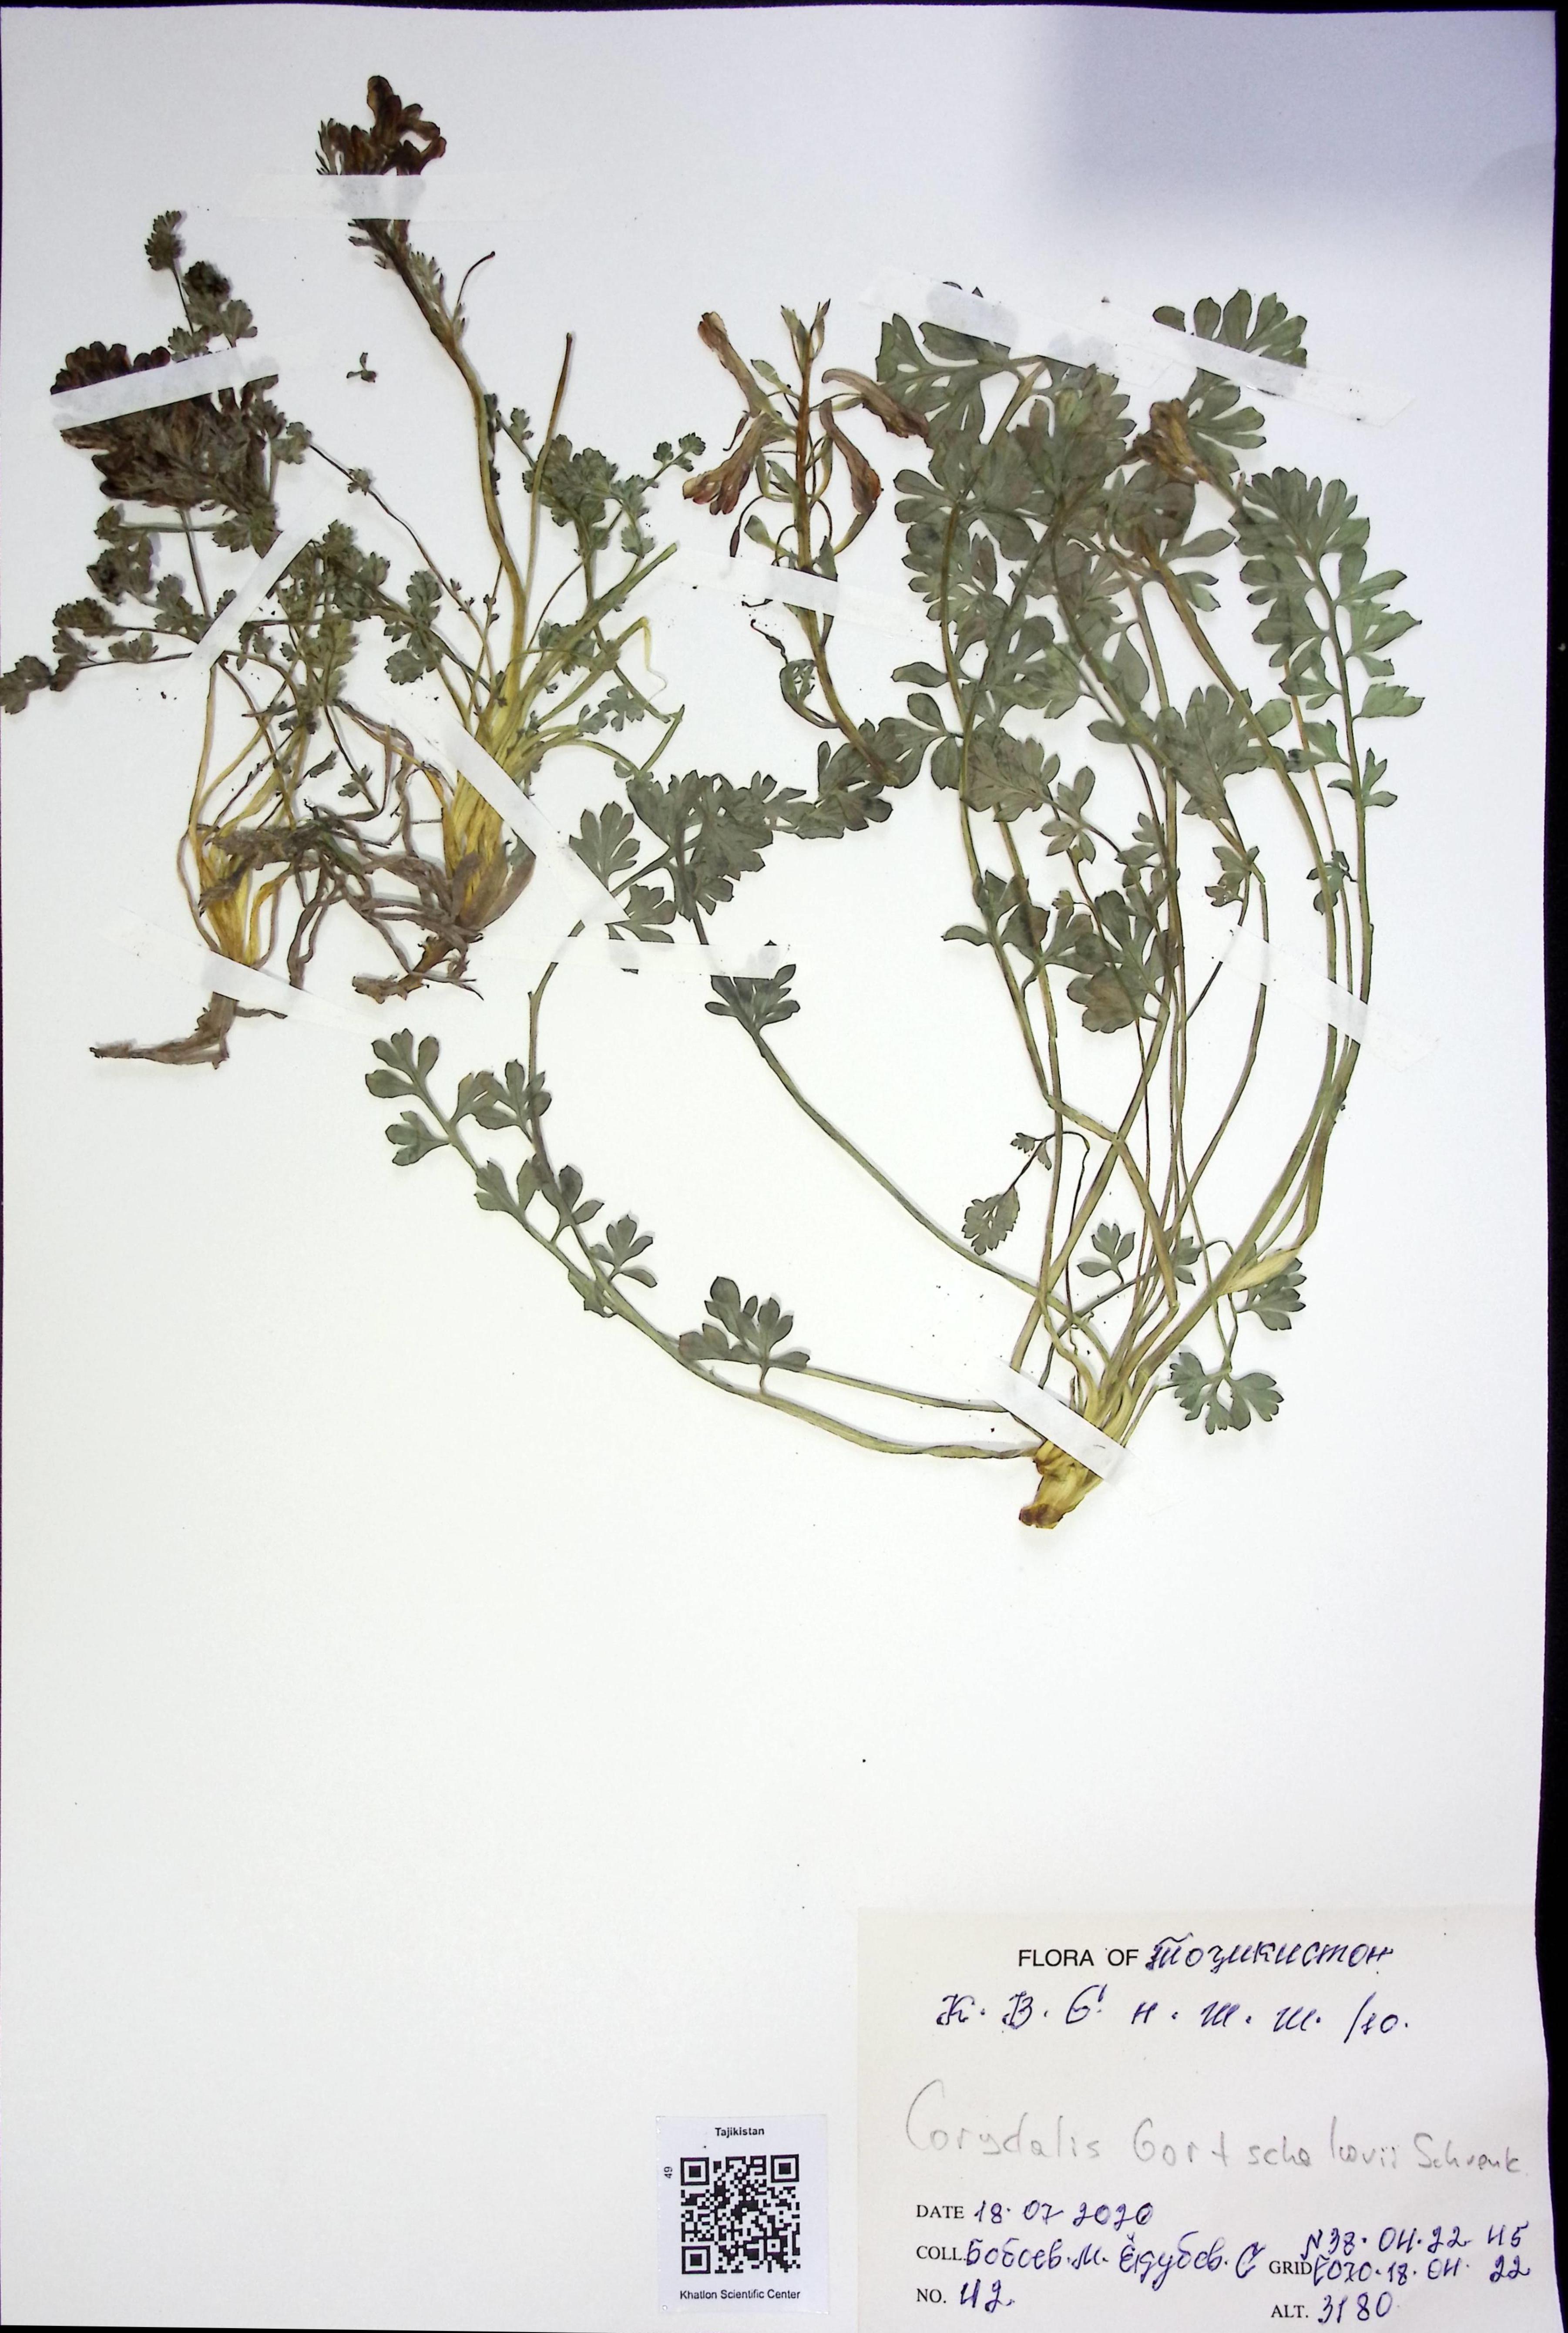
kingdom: Plantae
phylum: Tracheophyta
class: Magnoliopsida
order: Ranunculales
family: Papaveraceae
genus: Corydalis
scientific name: Corydalis
